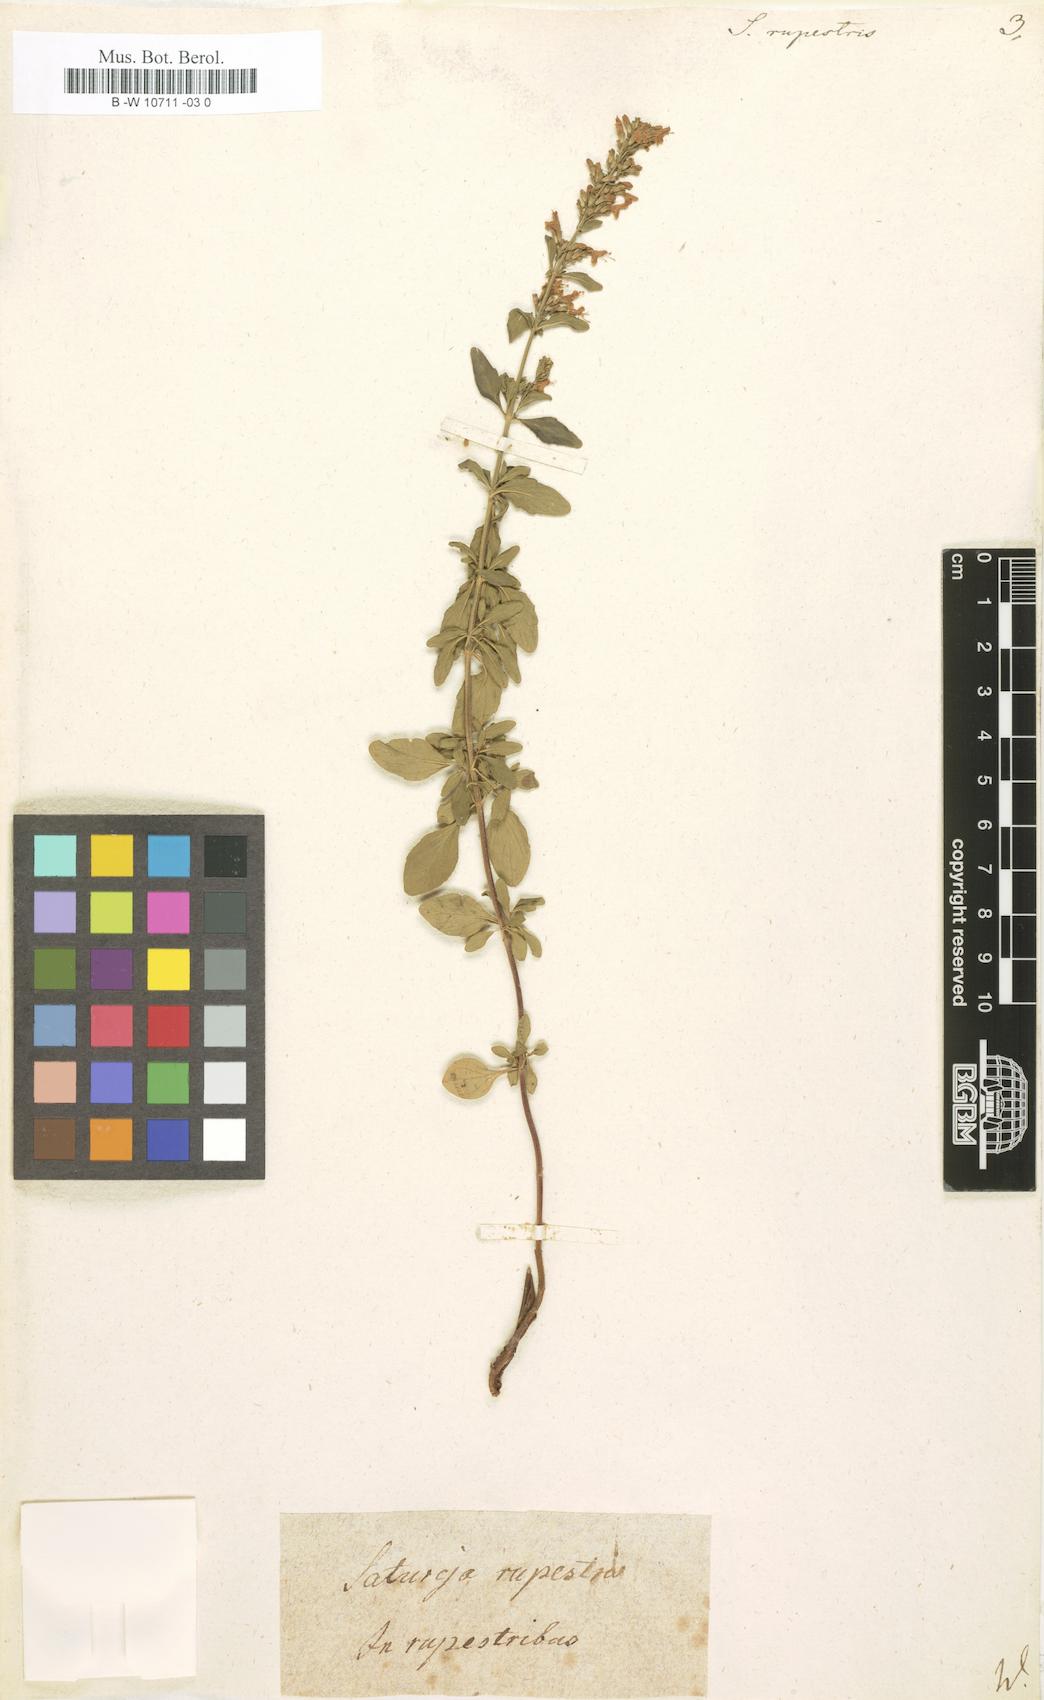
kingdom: Plantae
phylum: Tracheophyta
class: Magnoliopsida
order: Lamiales
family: Lamiaceae
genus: Clinopodium
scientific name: Clinopodium album
